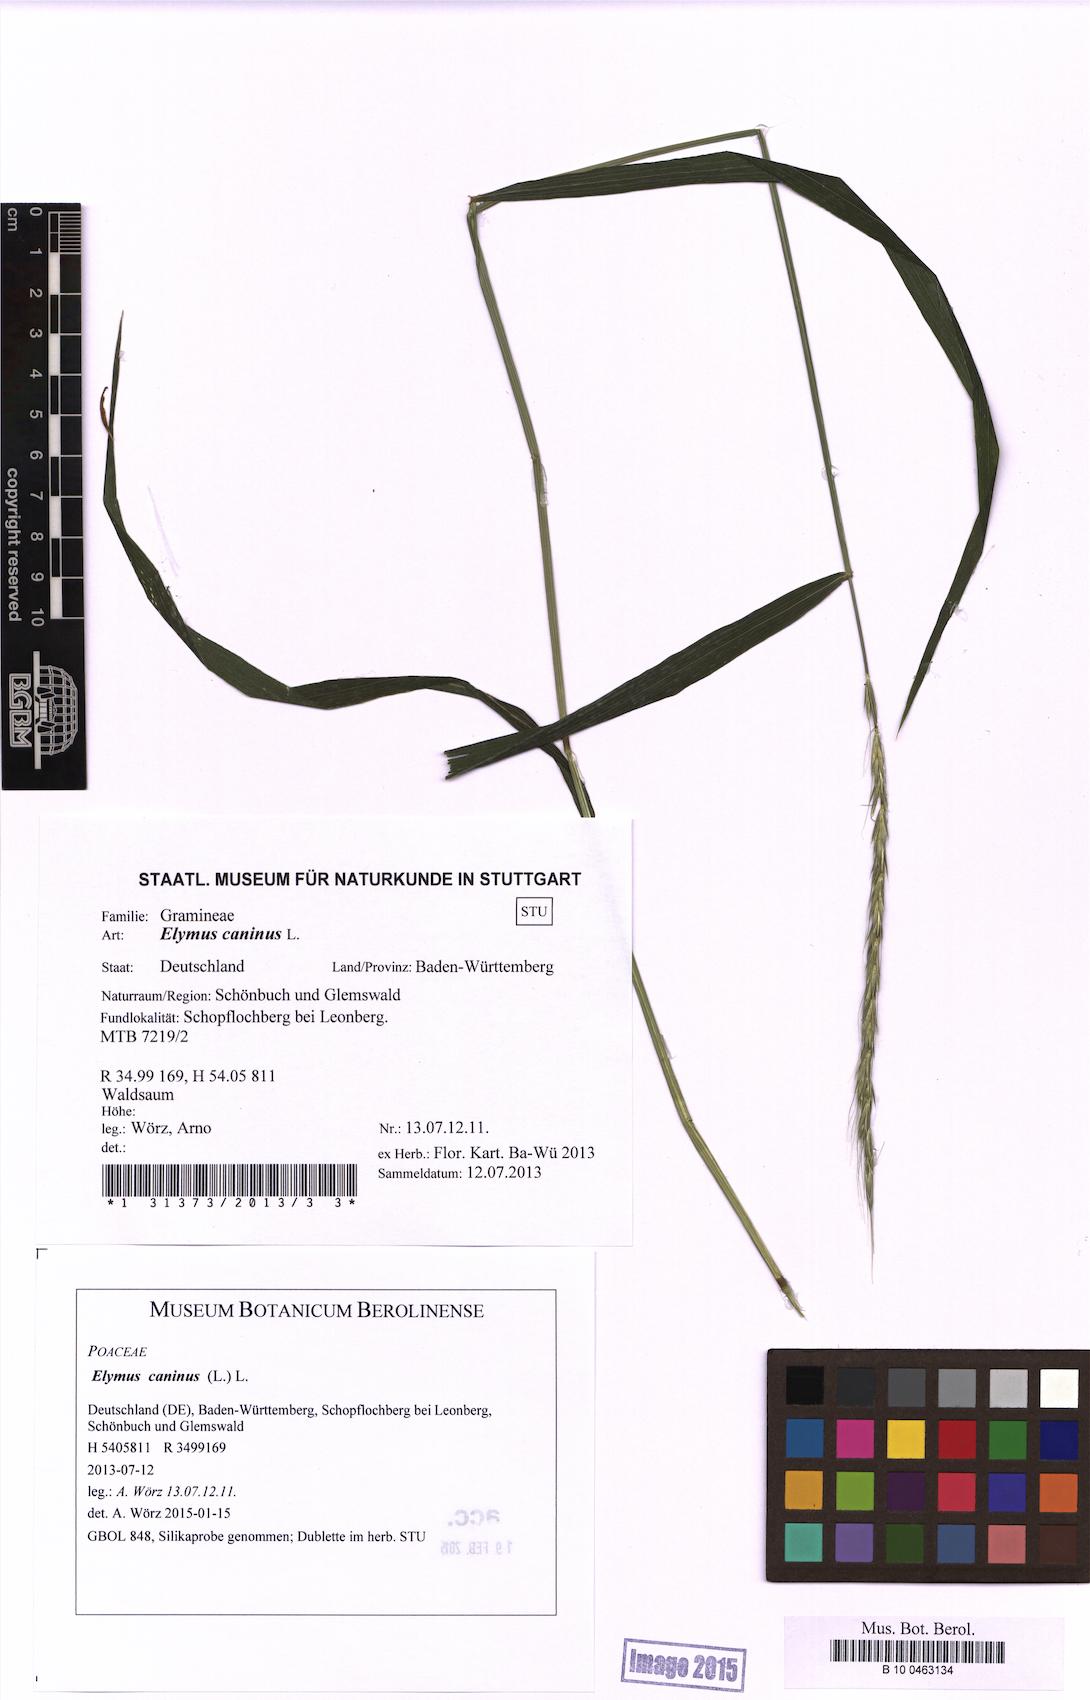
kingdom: Plantae
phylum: Tracheophyta
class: Liliopsida
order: Poales
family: Poaceae
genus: Elymus
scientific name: Elymus caninus
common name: Bearded couch
